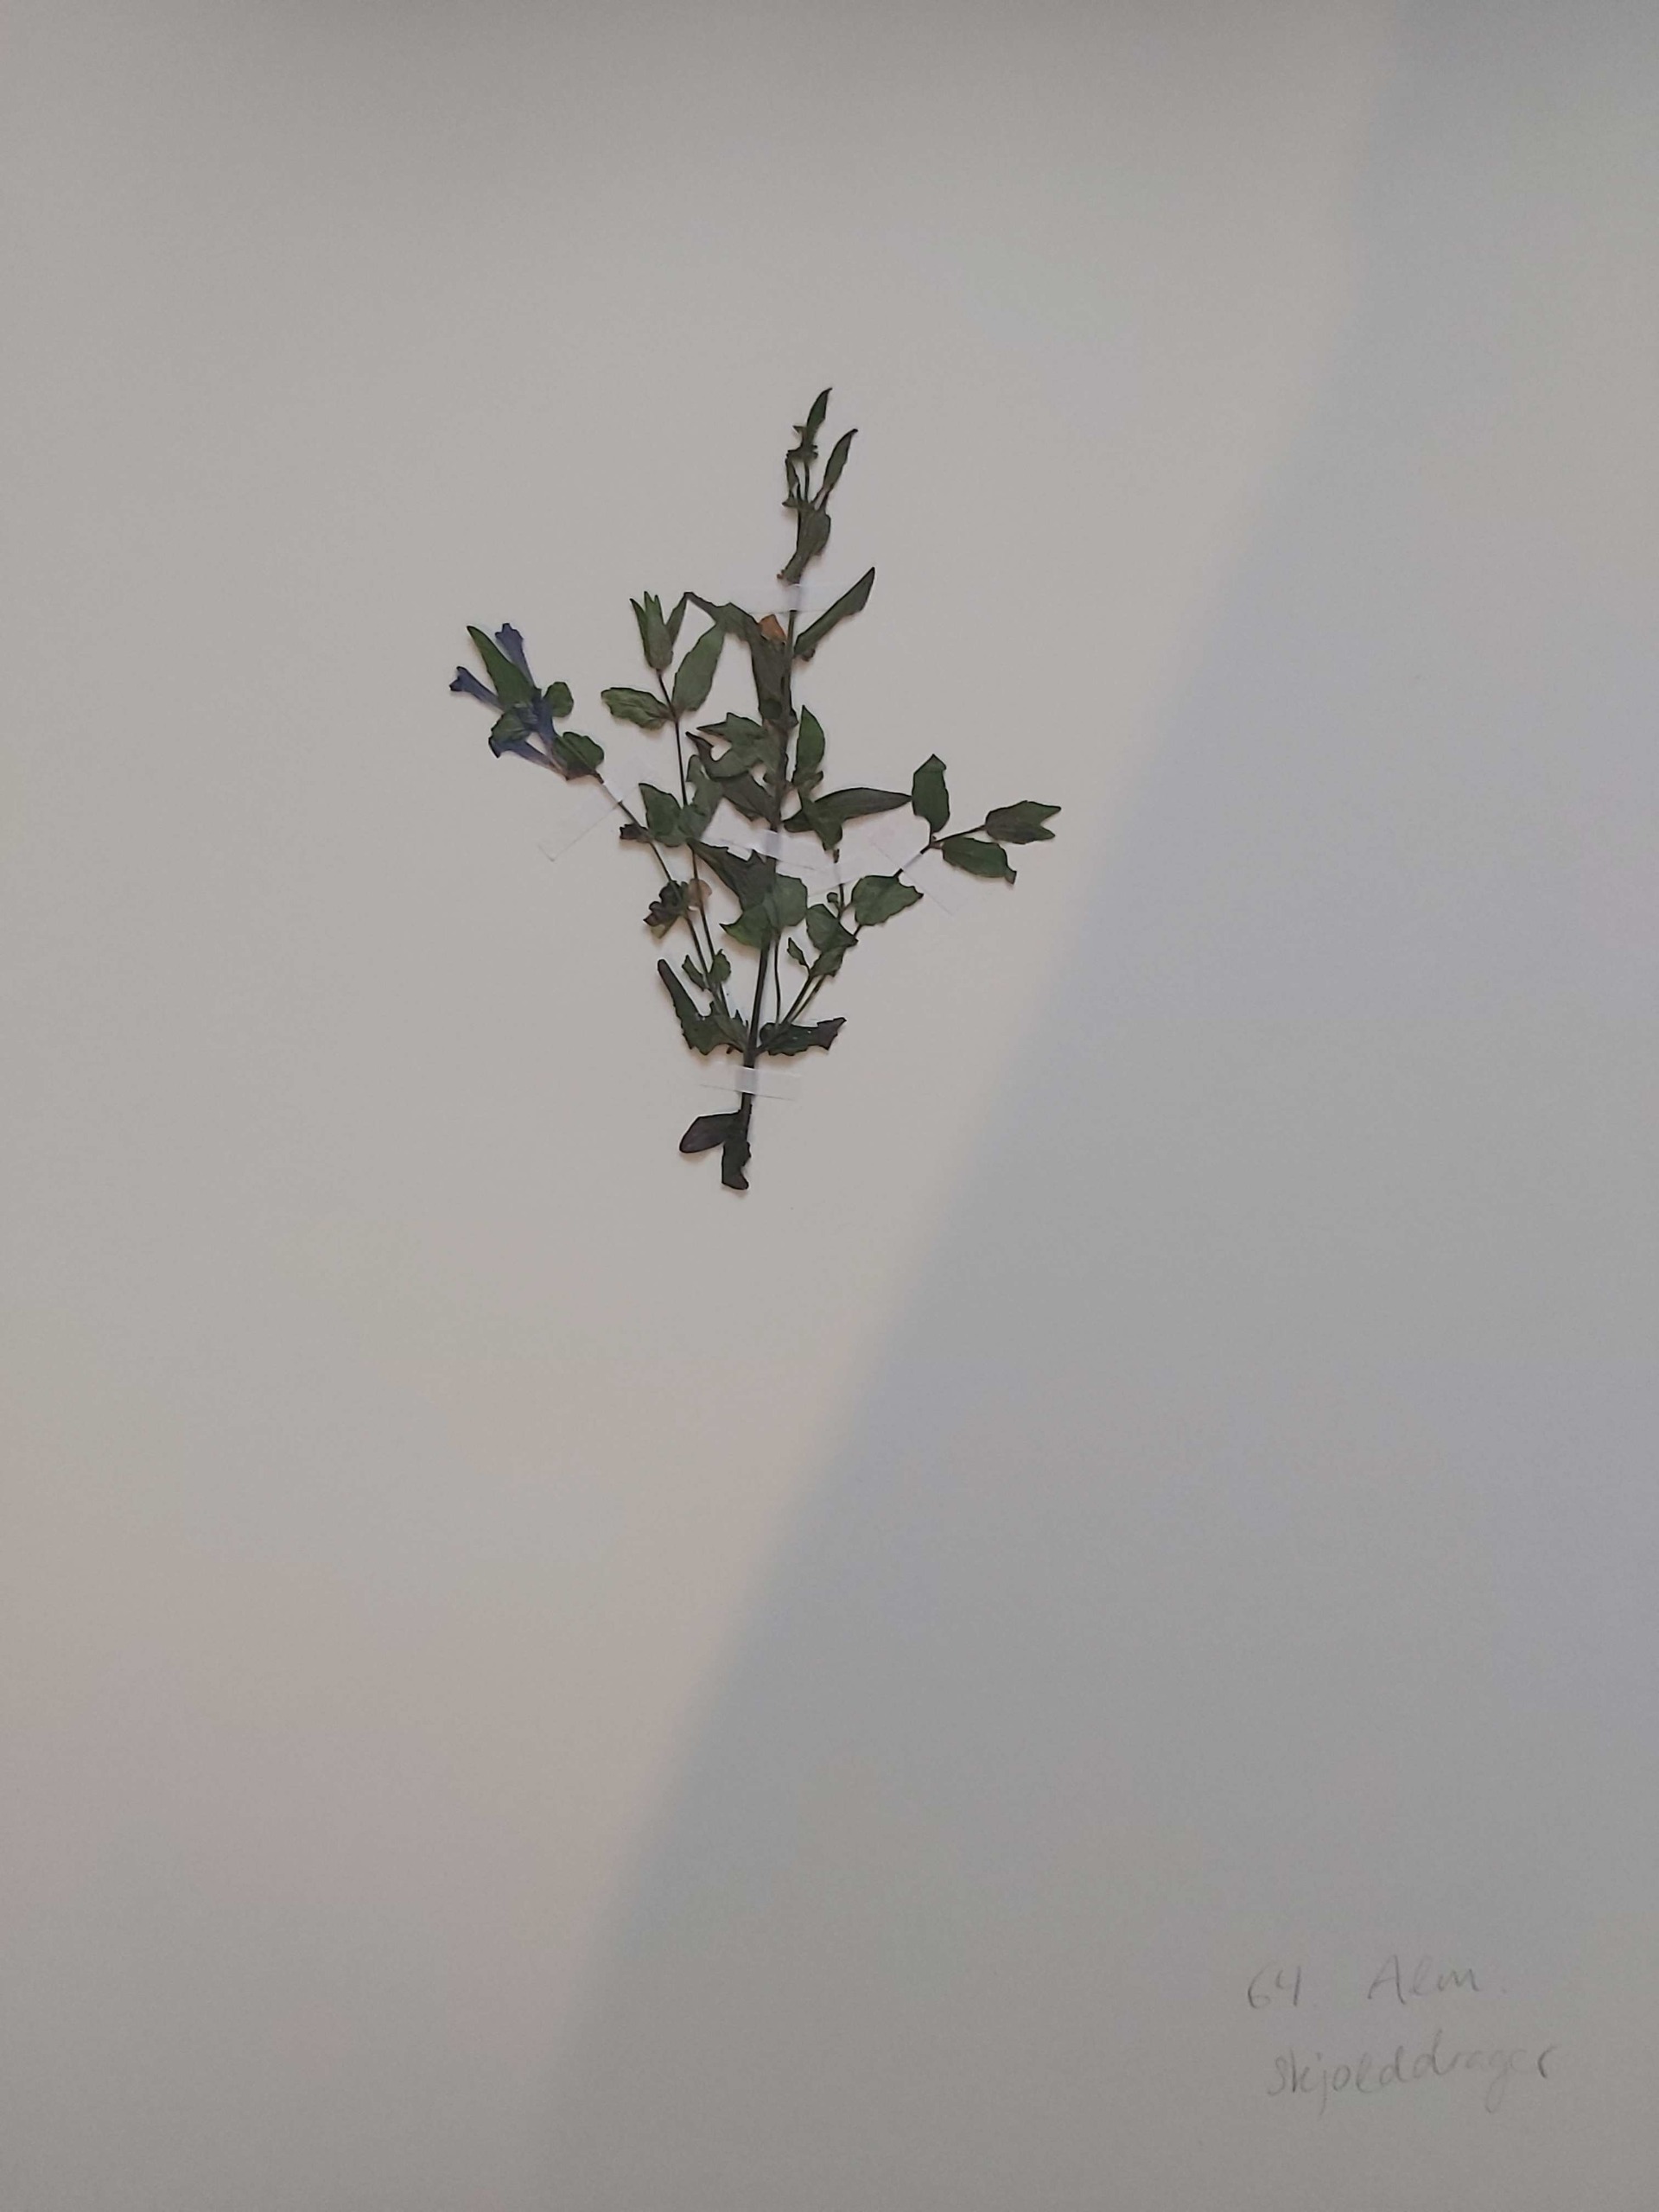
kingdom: Plantae
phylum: Tracheophyta
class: Magnoliopsida
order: Lamiales
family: Lamiaceae
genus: Scutellaria
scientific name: Scutellaria galericulata
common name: Almindelig skjolddrager
